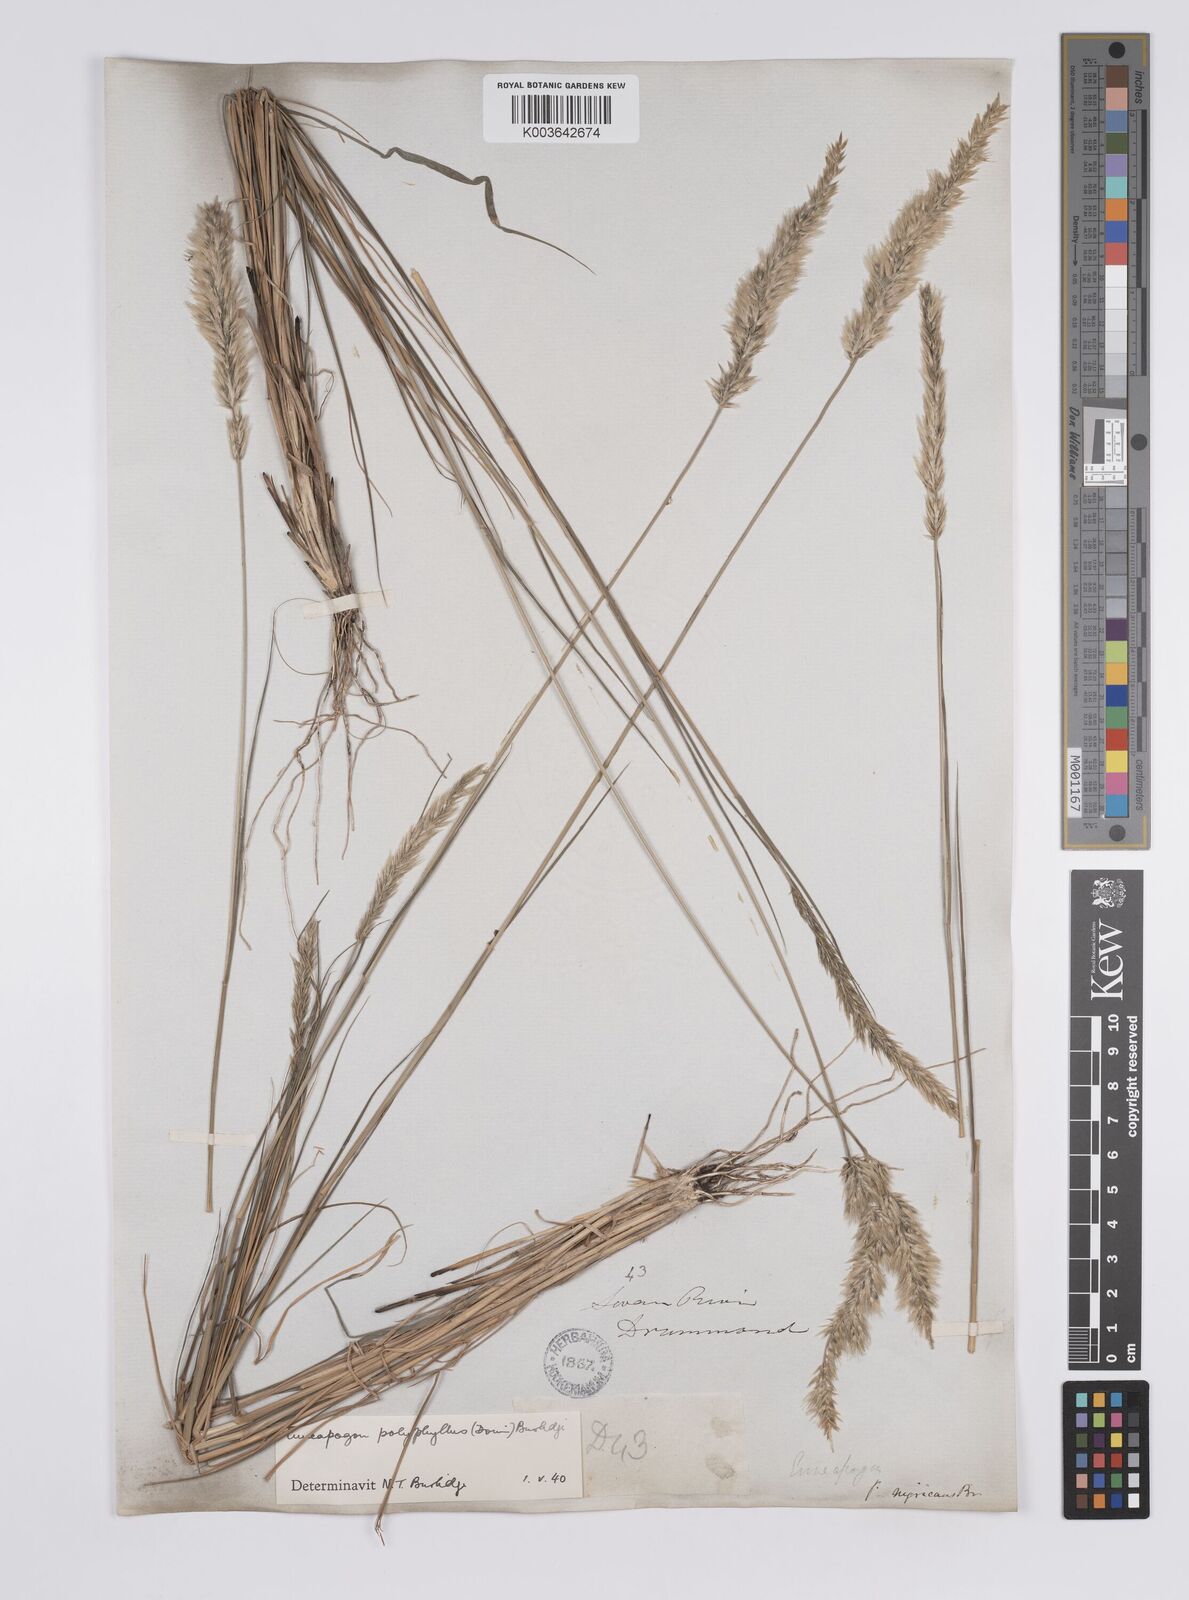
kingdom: Plantae
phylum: Tracheophyta
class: Liliopsida
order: Poales
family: Poaceae
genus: Enneapogon
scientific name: Enneapogon polyphyllus
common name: Leafy nineawn
